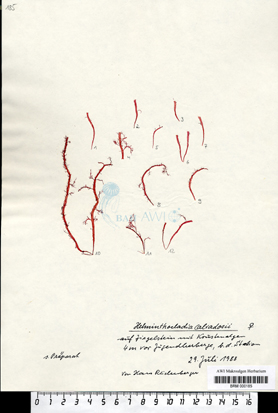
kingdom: Plantae
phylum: Rhodophyta
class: Florideophyceae
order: Nemaliales
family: Liagoraceae
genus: Helminthocladia
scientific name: Helminthocladia calvadosii
